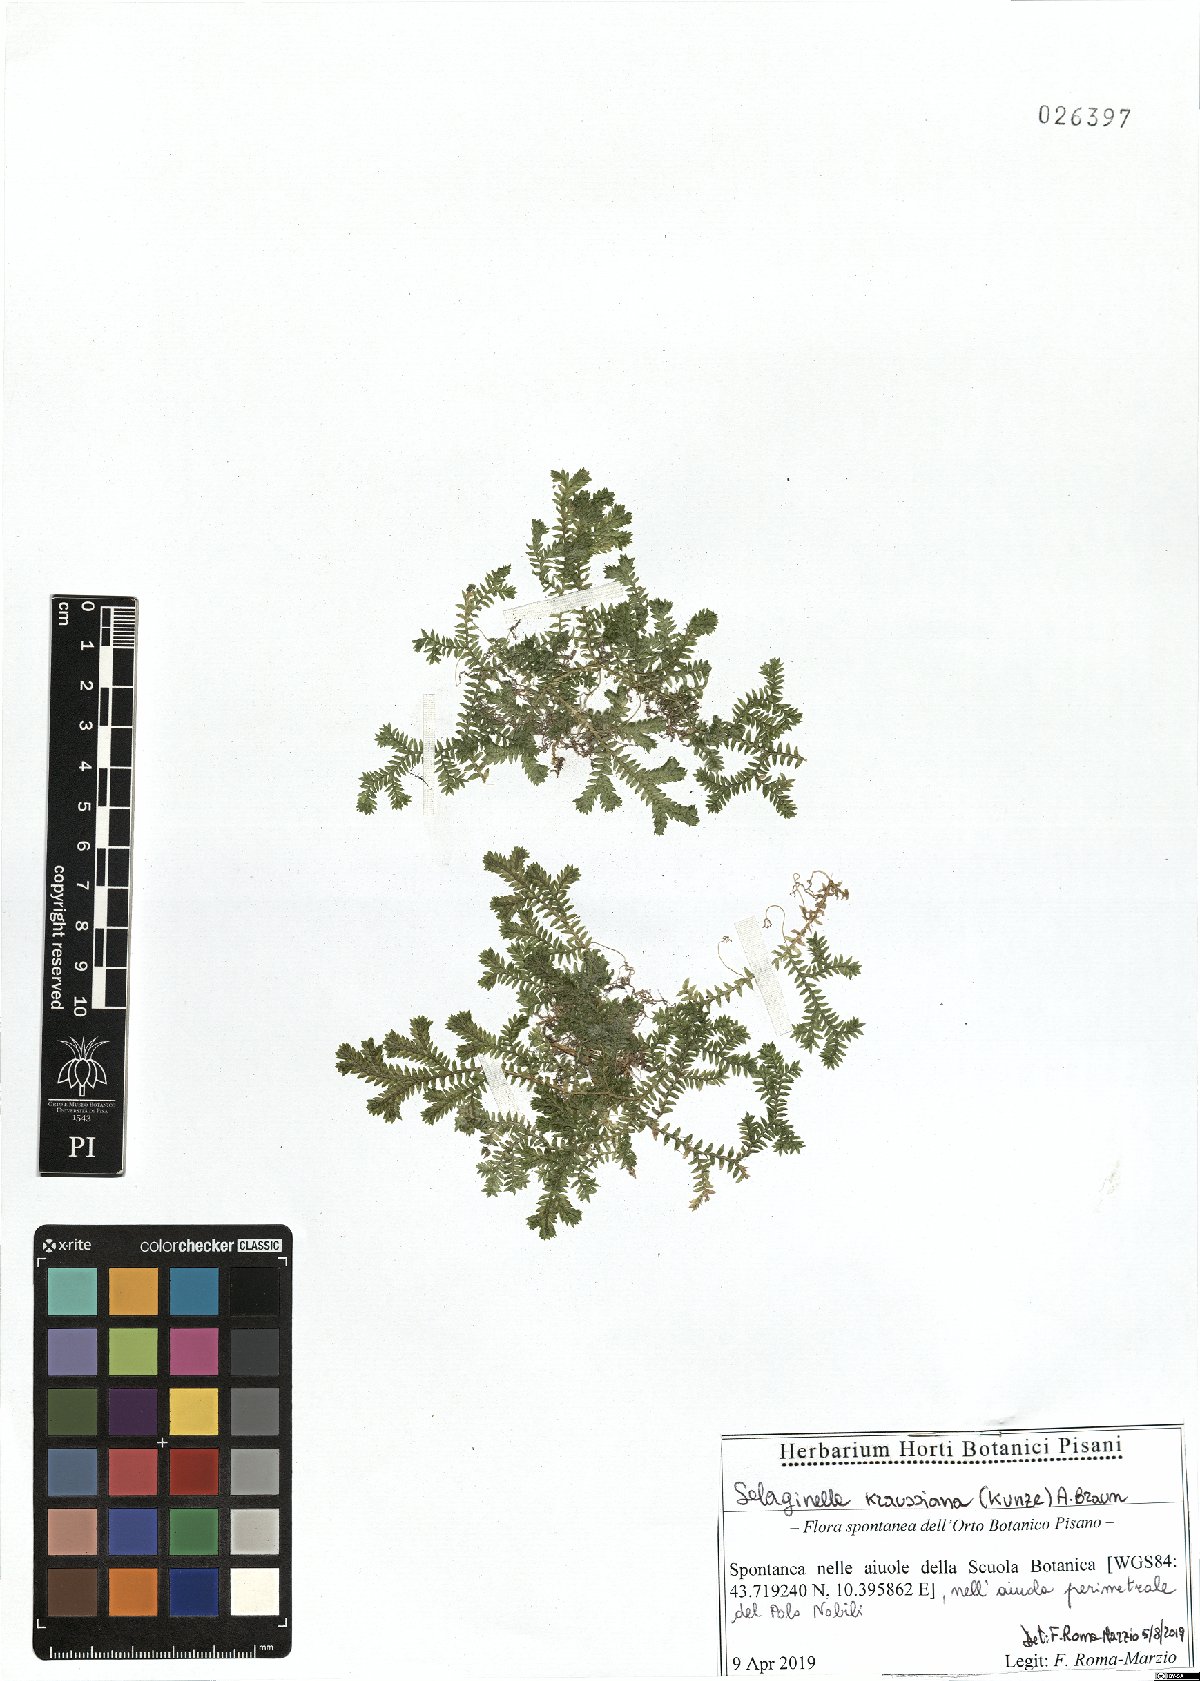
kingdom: Plantae
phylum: Tracheophyta
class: Lycopodiopsida
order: Selaginellales
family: Selaginellaceae
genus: Selaginella
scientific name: Selaginella kraussiana
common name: Krauss' spikemoss
